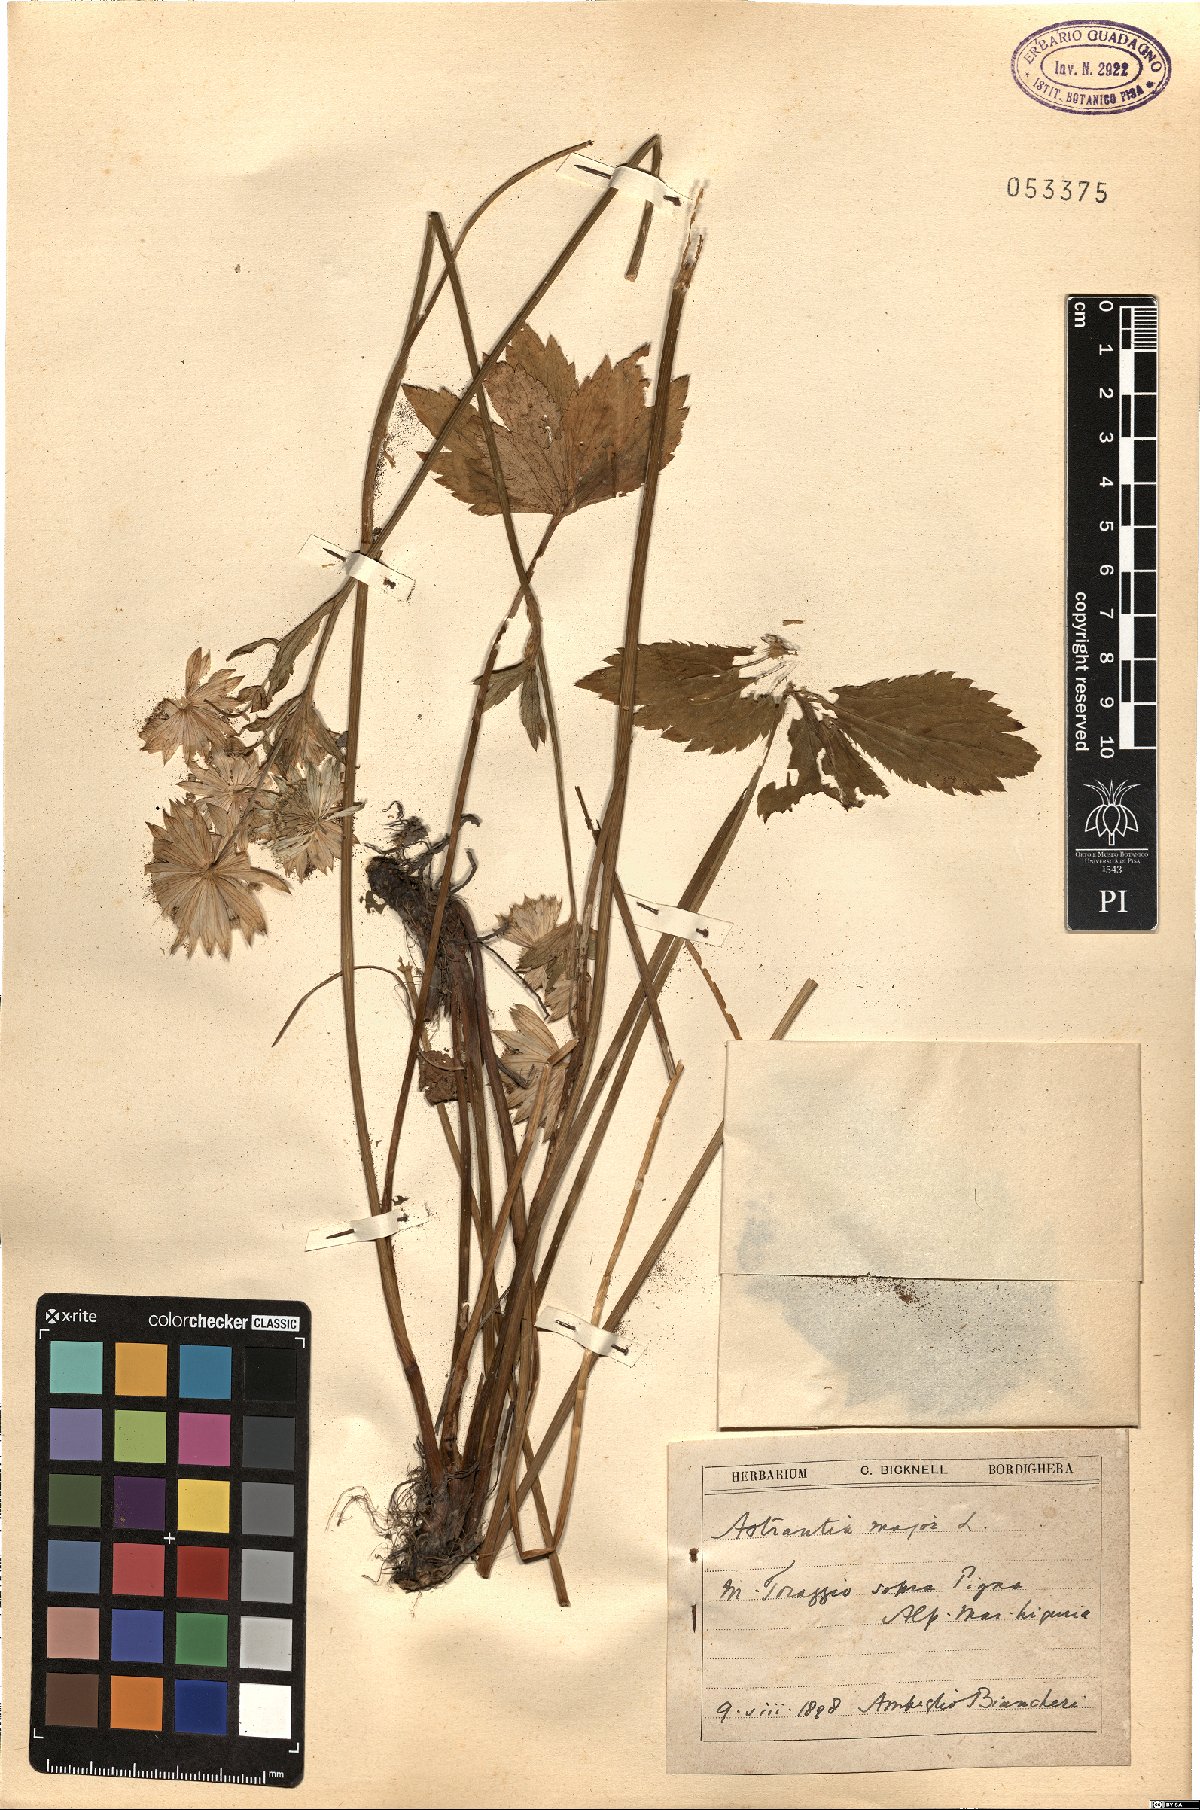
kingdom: Plantae
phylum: Tracheophyta
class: Magnoliopsida
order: Apiales
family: Apiaceae
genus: Astrantia
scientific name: Astrantia major
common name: Greater masterwort
